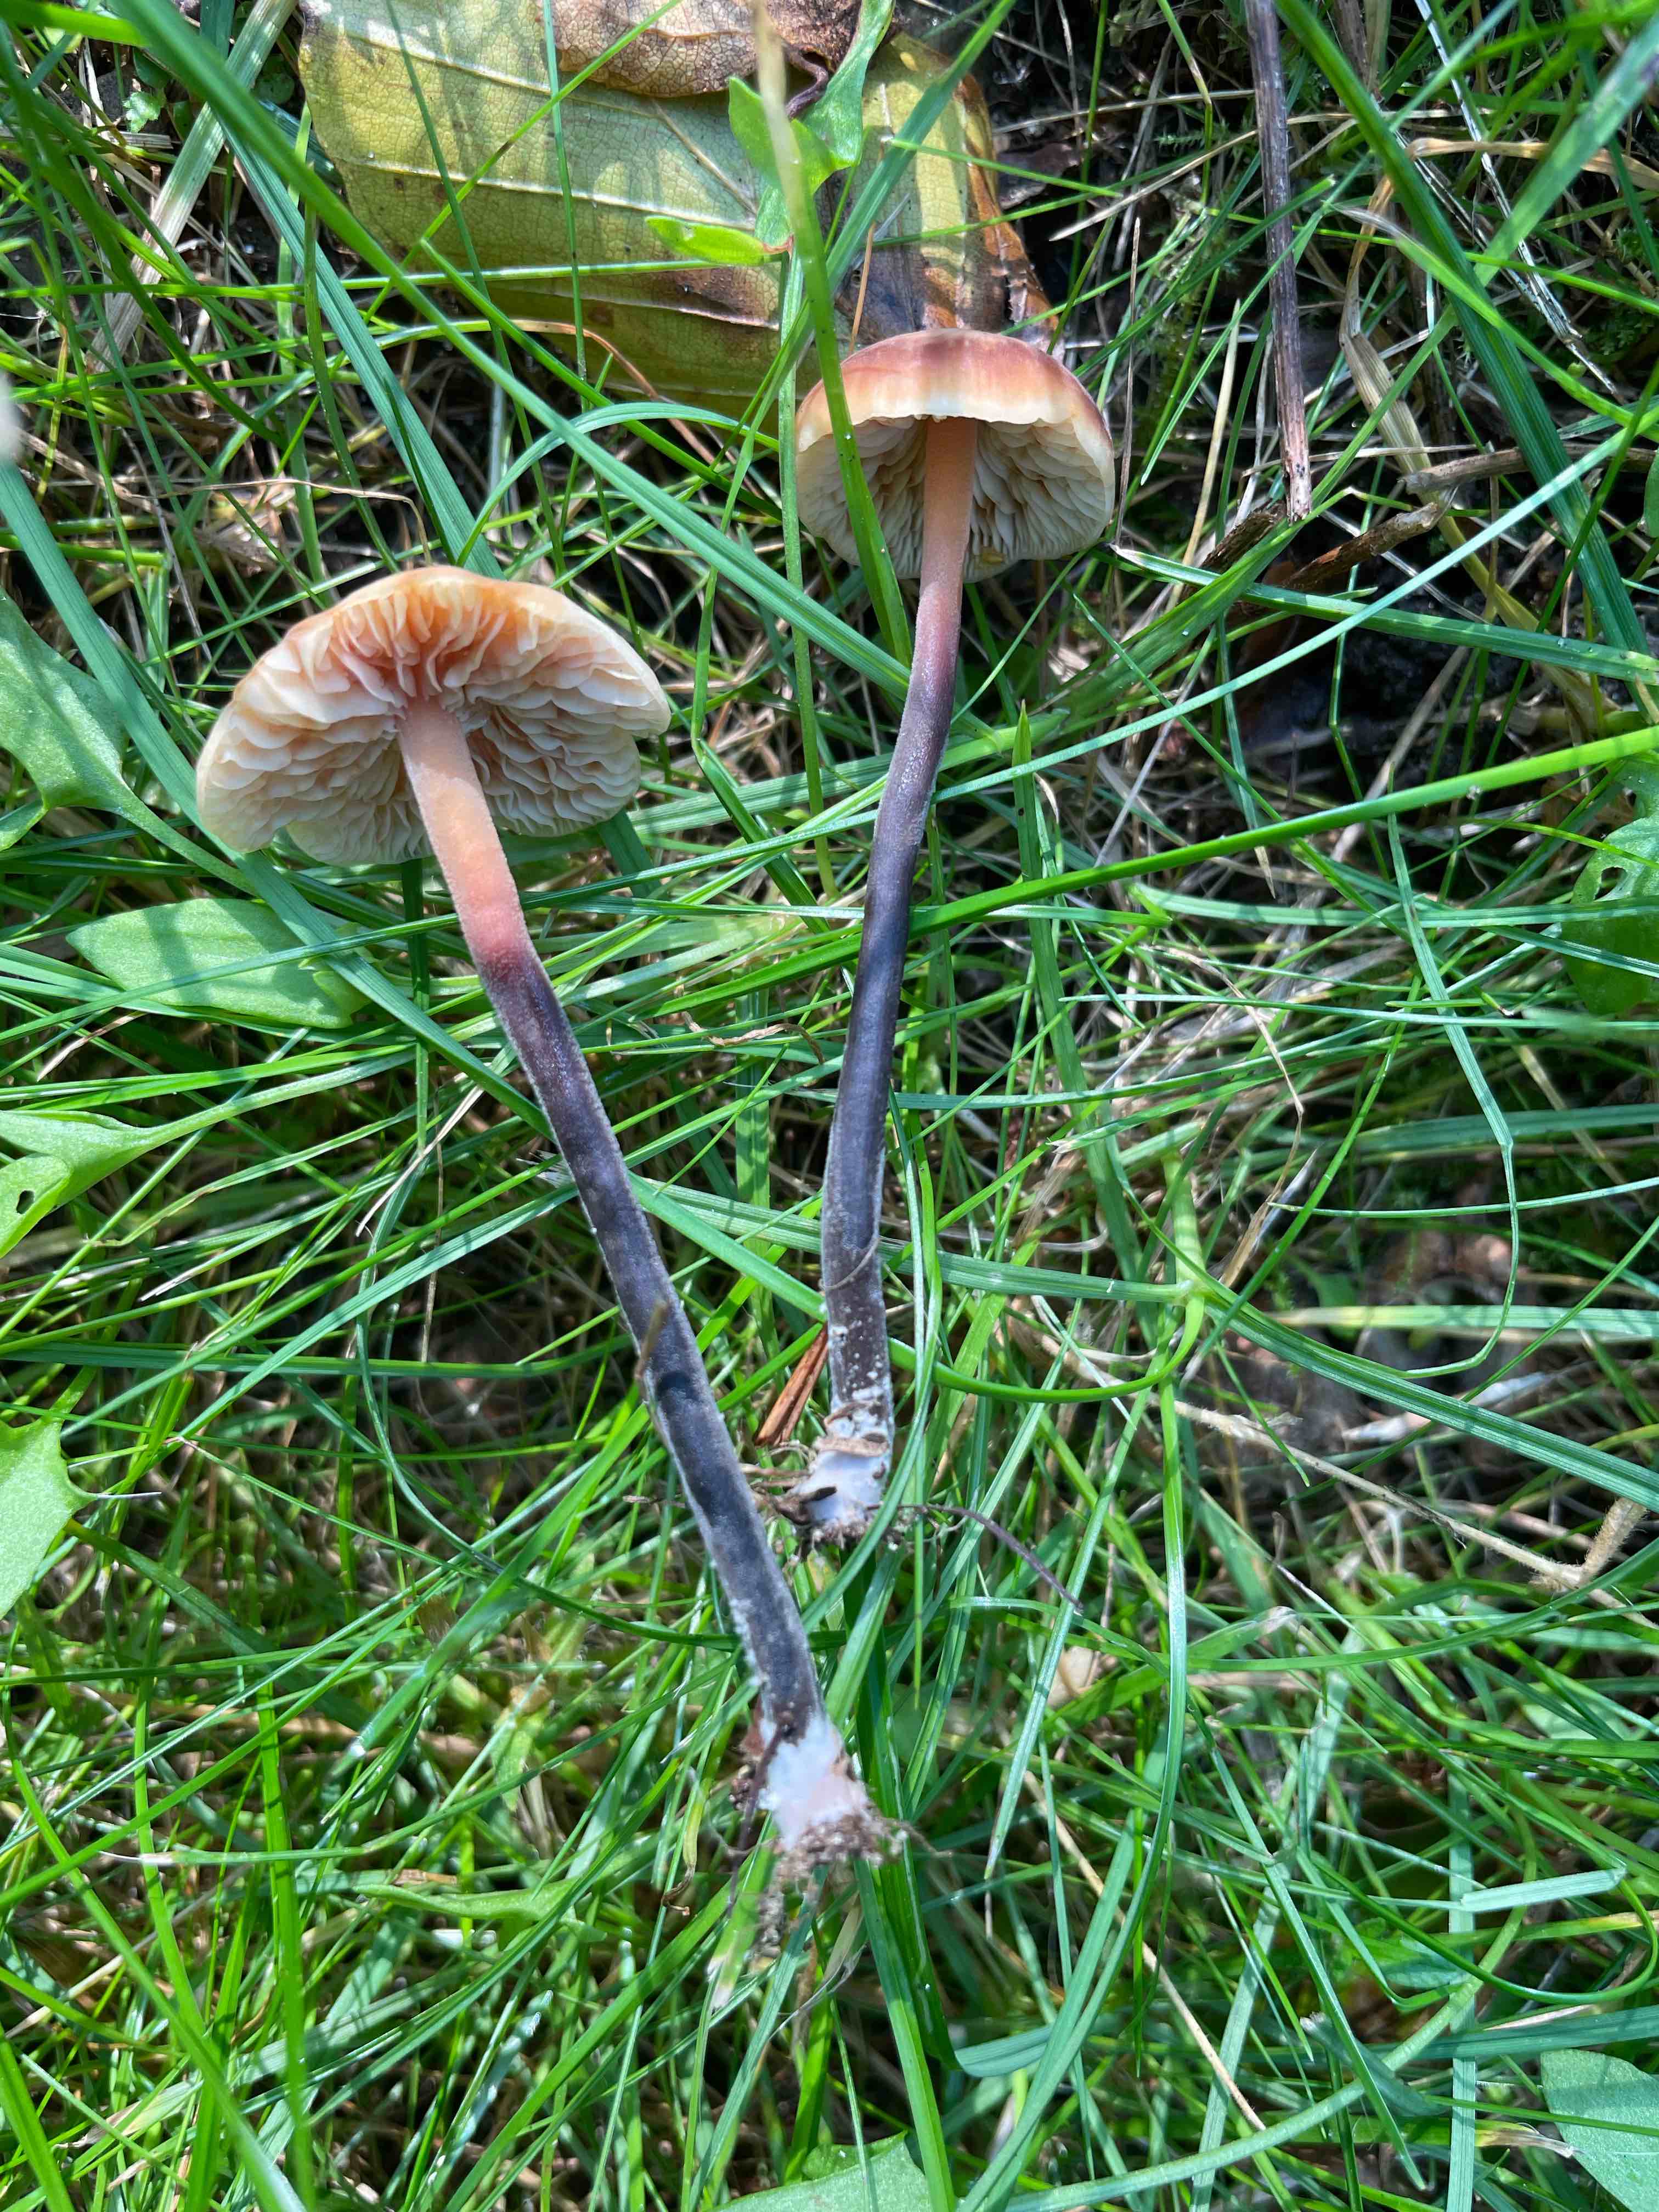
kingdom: Fungi
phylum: Basidiomycota
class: Agaricomycetes
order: Agaricales
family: Macrocystidiaceae
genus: Macrocystidia
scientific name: Macrocystidia cucumis
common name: agurkehat
